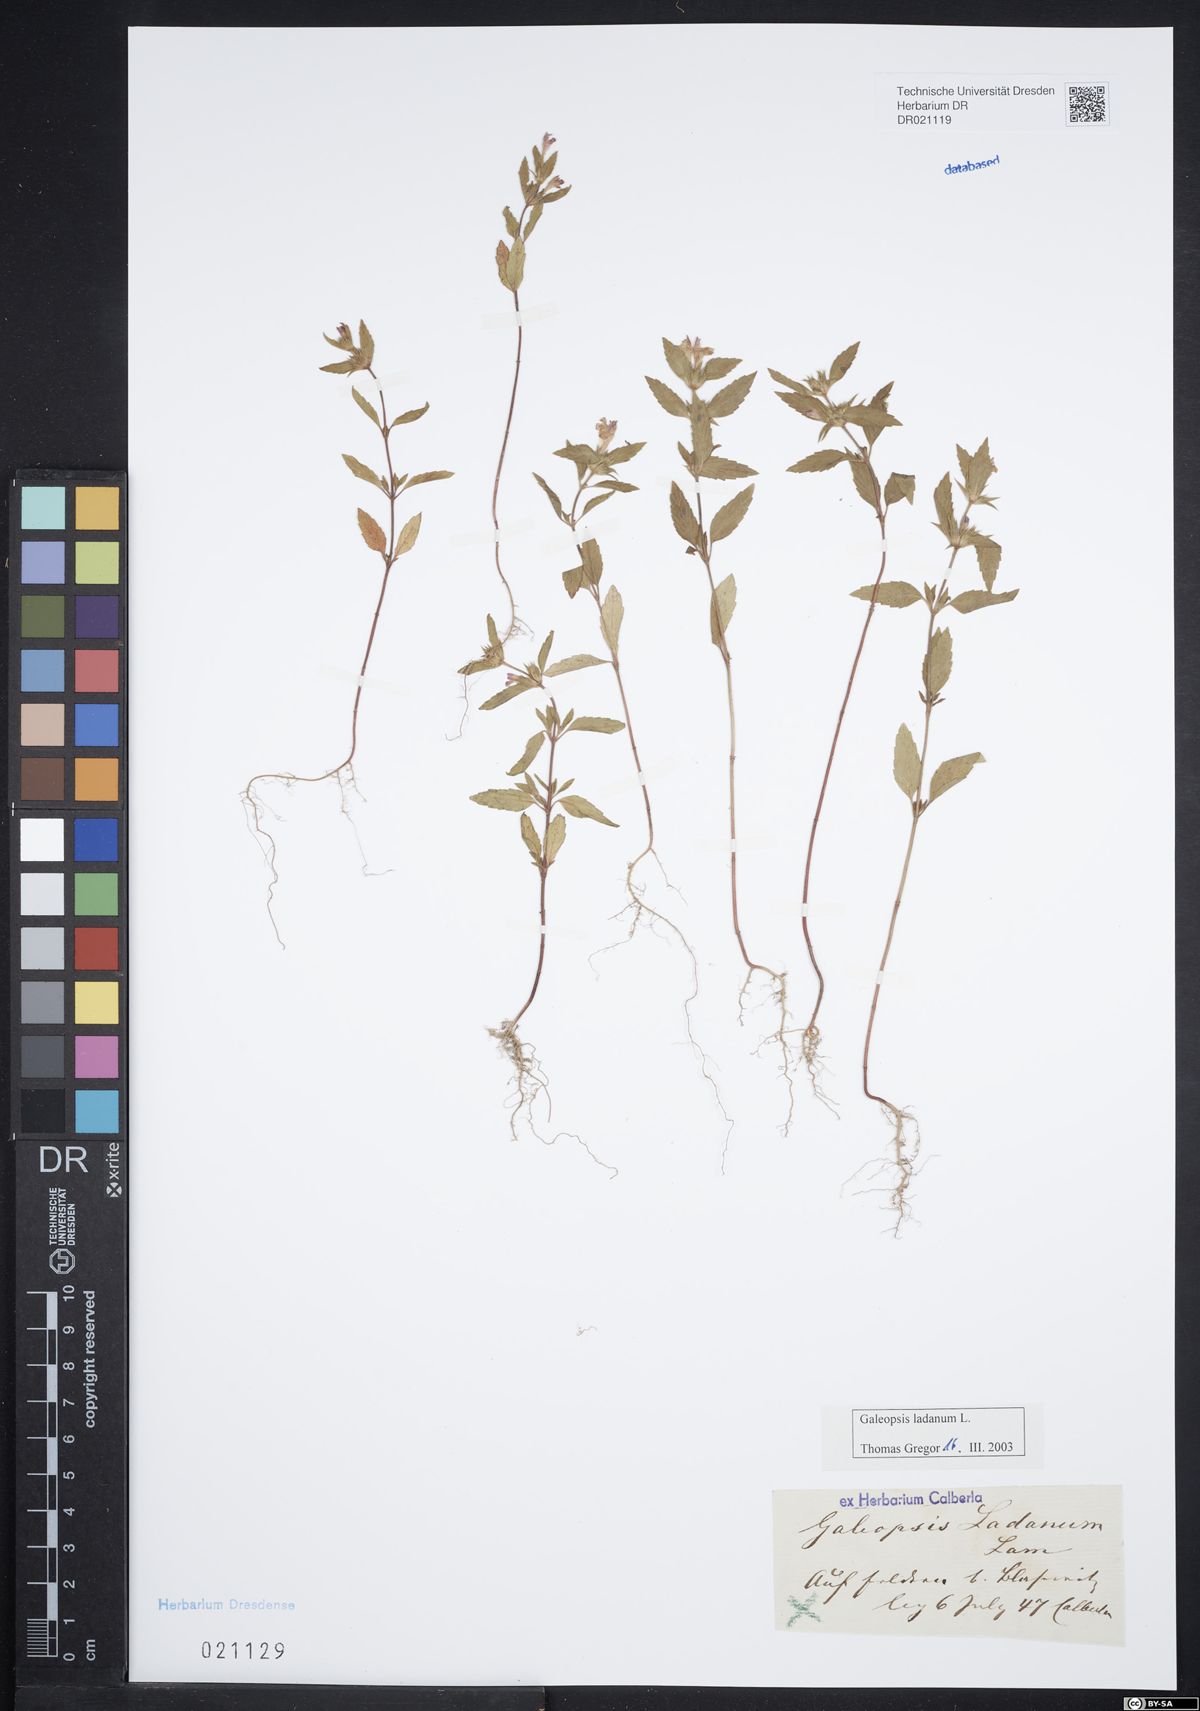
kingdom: Plantae
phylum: Tracheophyta
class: Magnoliopsida
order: Lamiales
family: Lamiaceae
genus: Galeopsis
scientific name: Galeopsis ladanum
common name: Broad-leaved hemp-nettle
